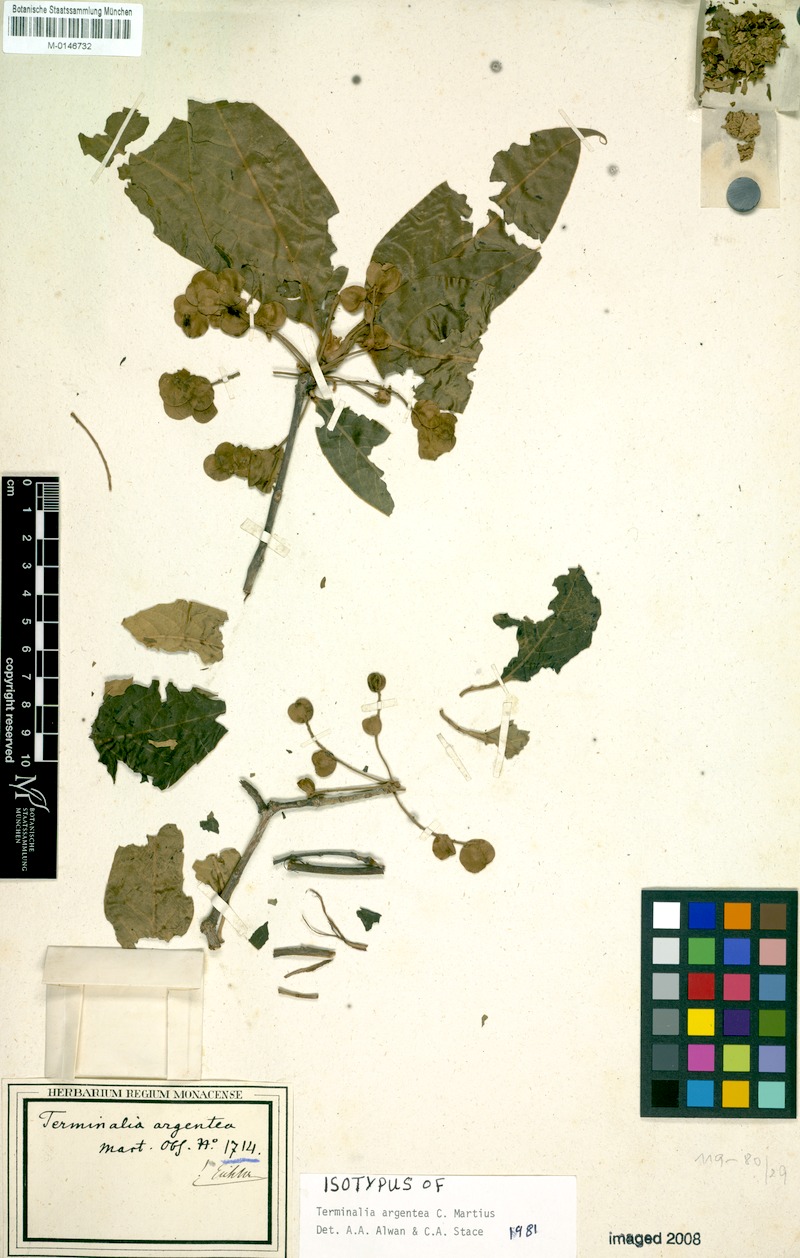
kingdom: Plantae
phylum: Tracheophyta
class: Magnoliopsida
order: Myrtales
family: Combretaceae
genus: Terminalia
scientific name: Terminalia argentea
